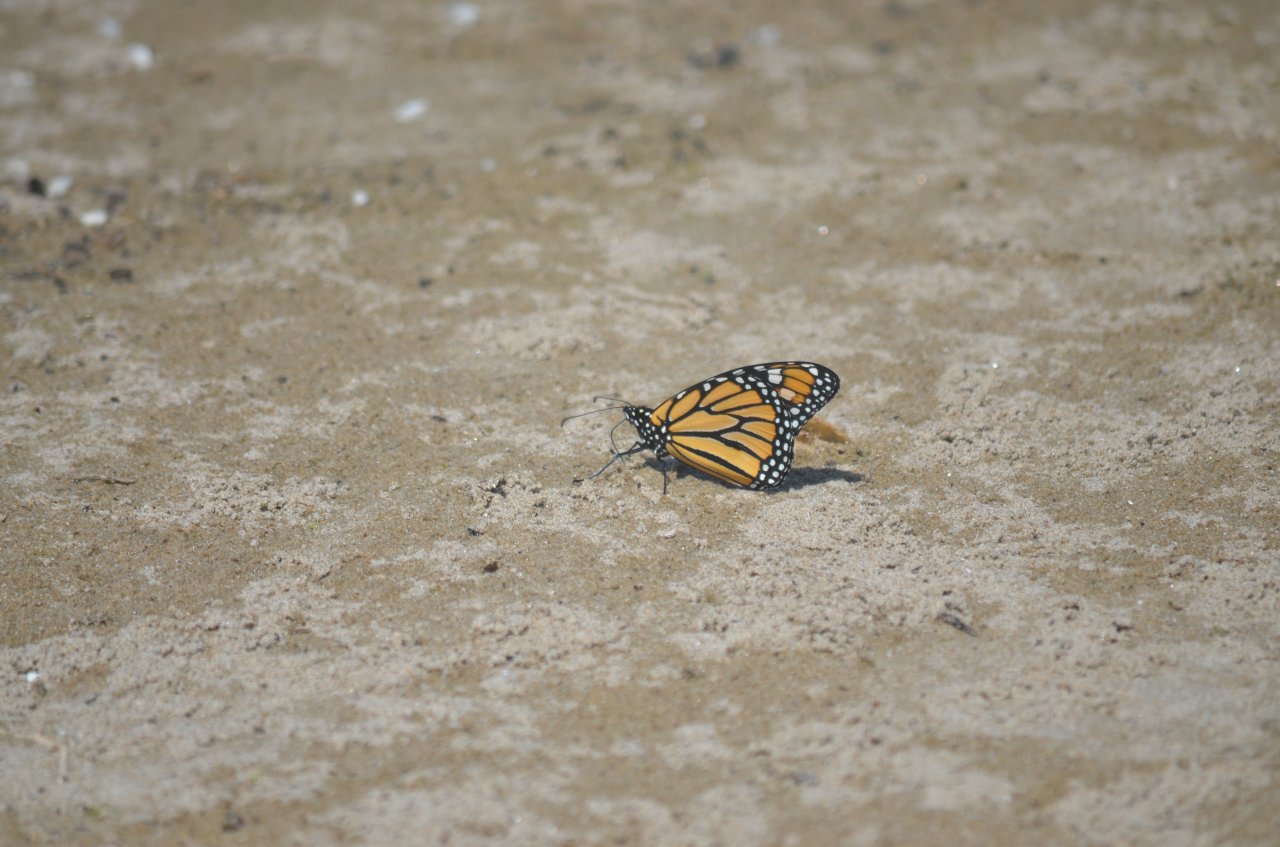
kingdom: Animalia
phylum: Arthropoda
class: Insecta
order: Lepidoptera
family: Nymphalidae
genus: Danaus
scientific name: Danaus plexippus
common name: Monarch
